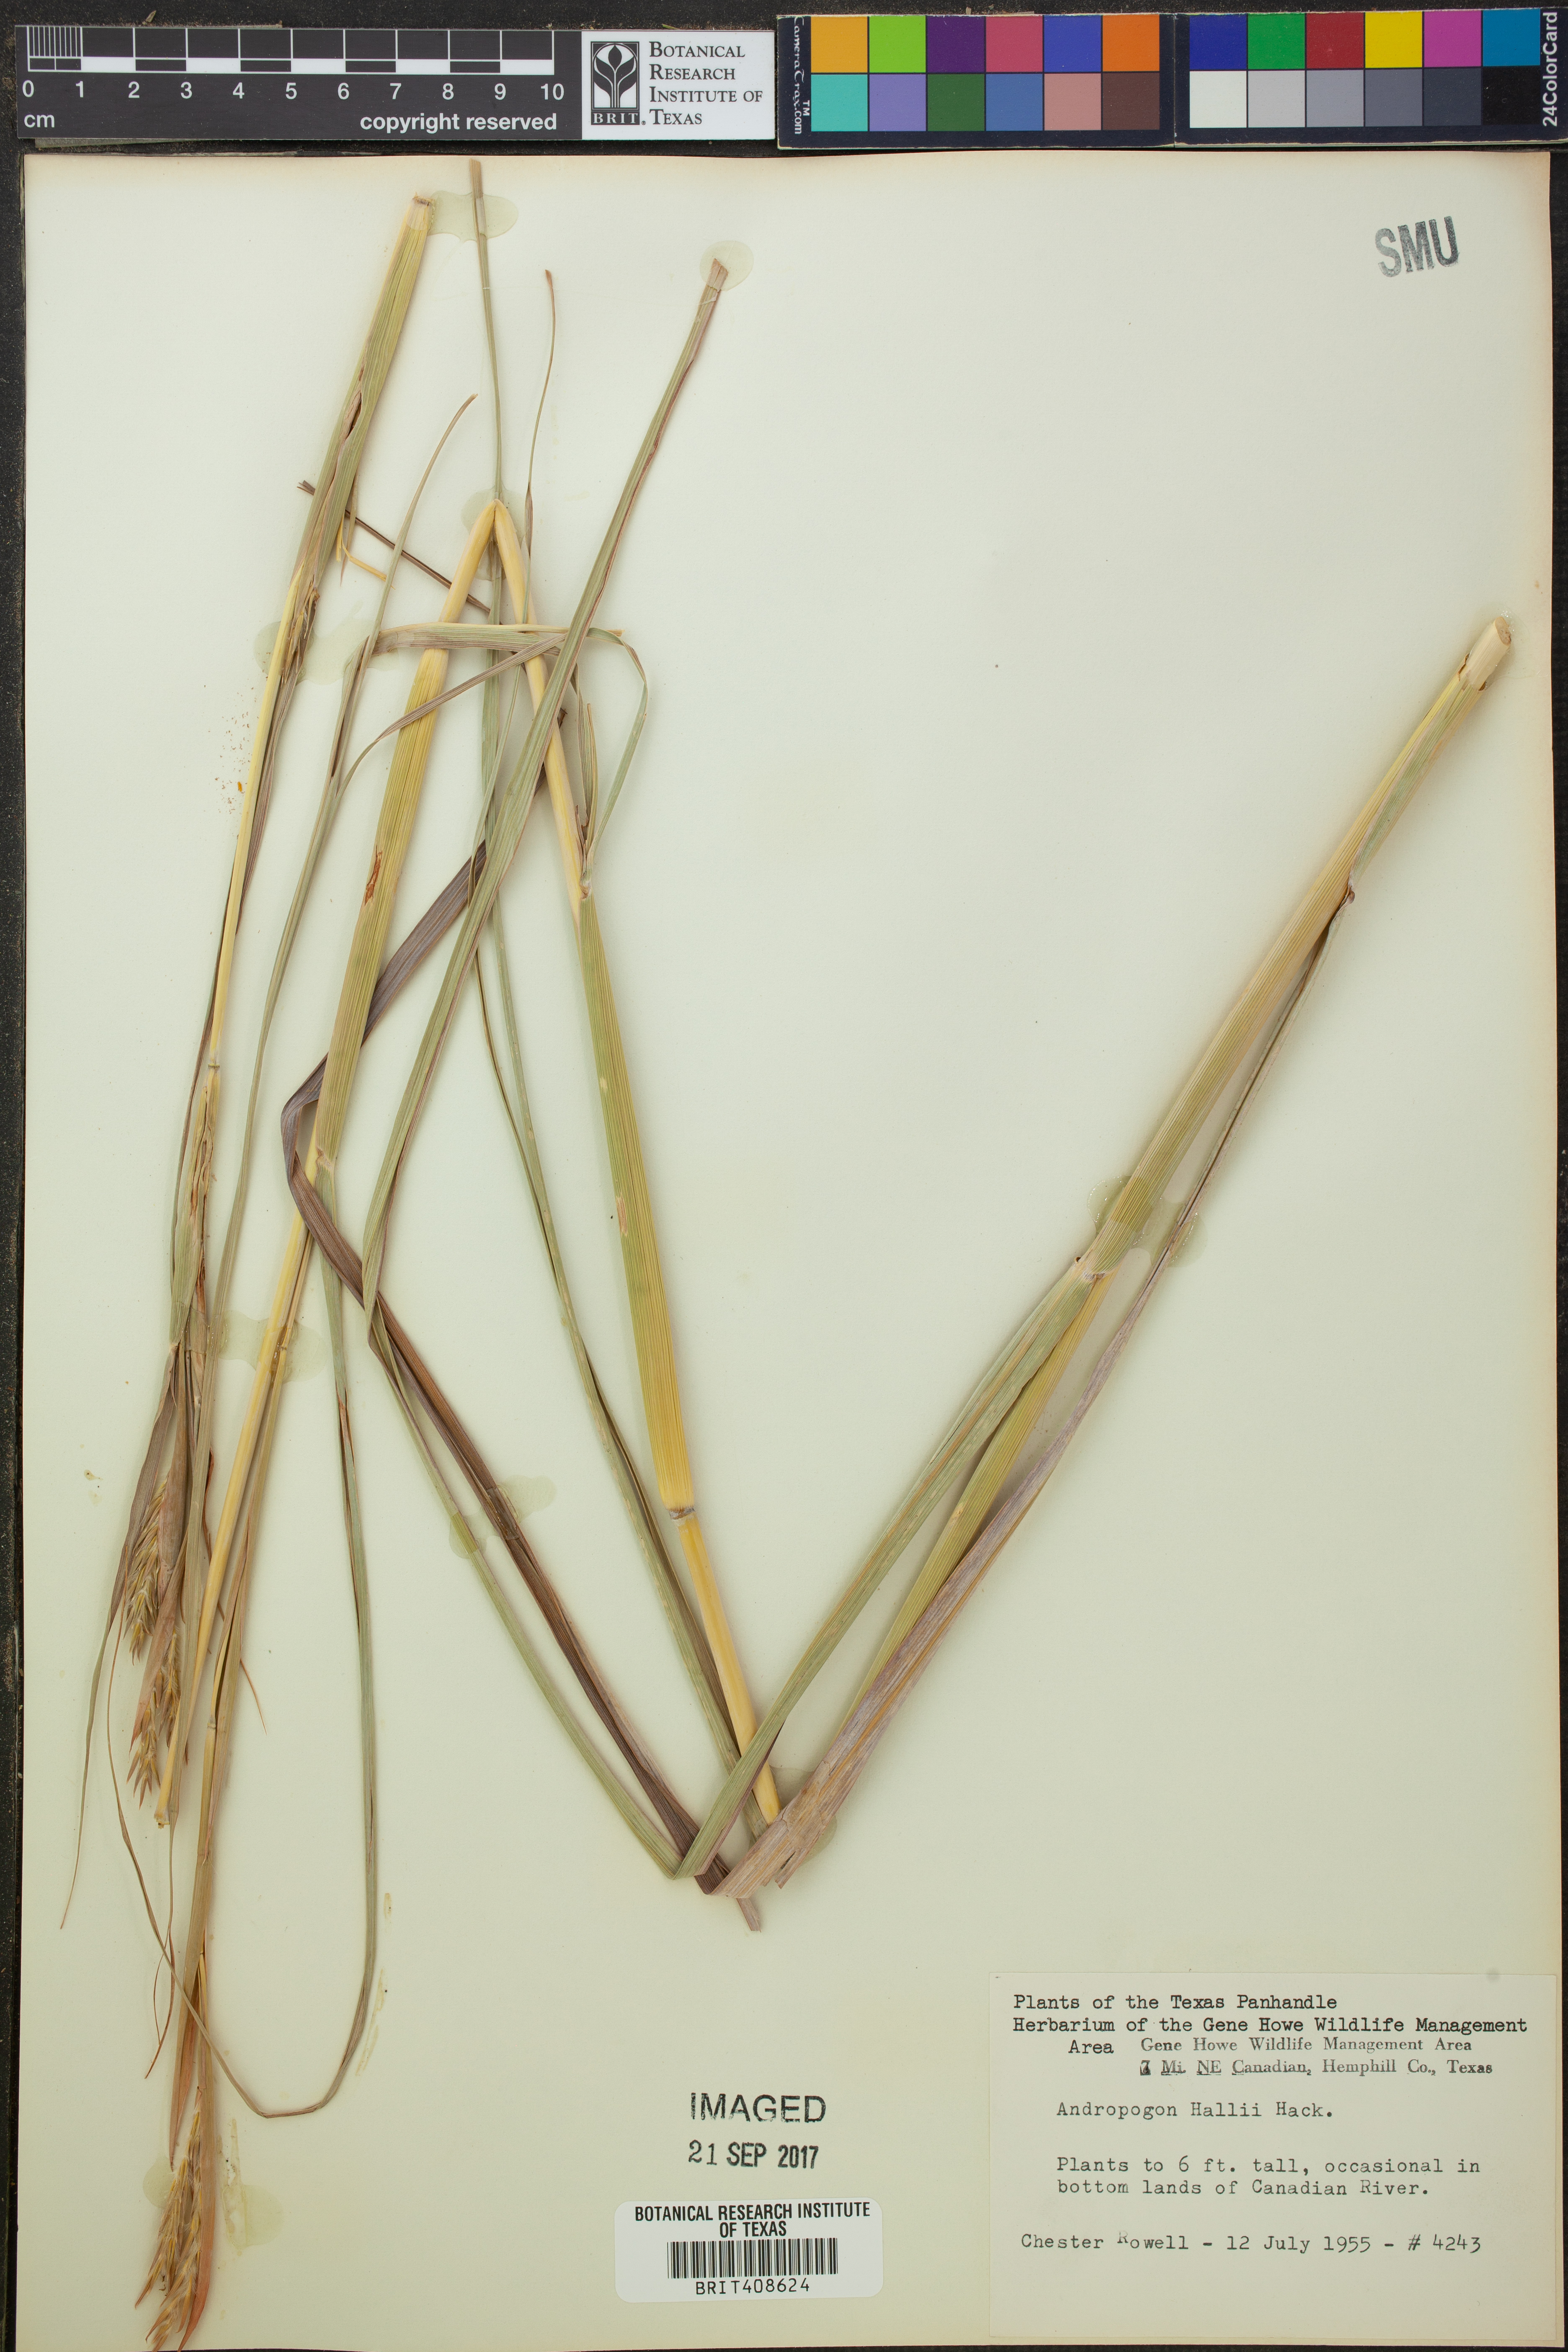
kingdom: Plantae
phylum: Tracheophyta
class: Liliopsida
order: Poales
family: Poaceae
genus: Andropogon
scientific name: Andropogon hallii
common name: Sand bluestem
